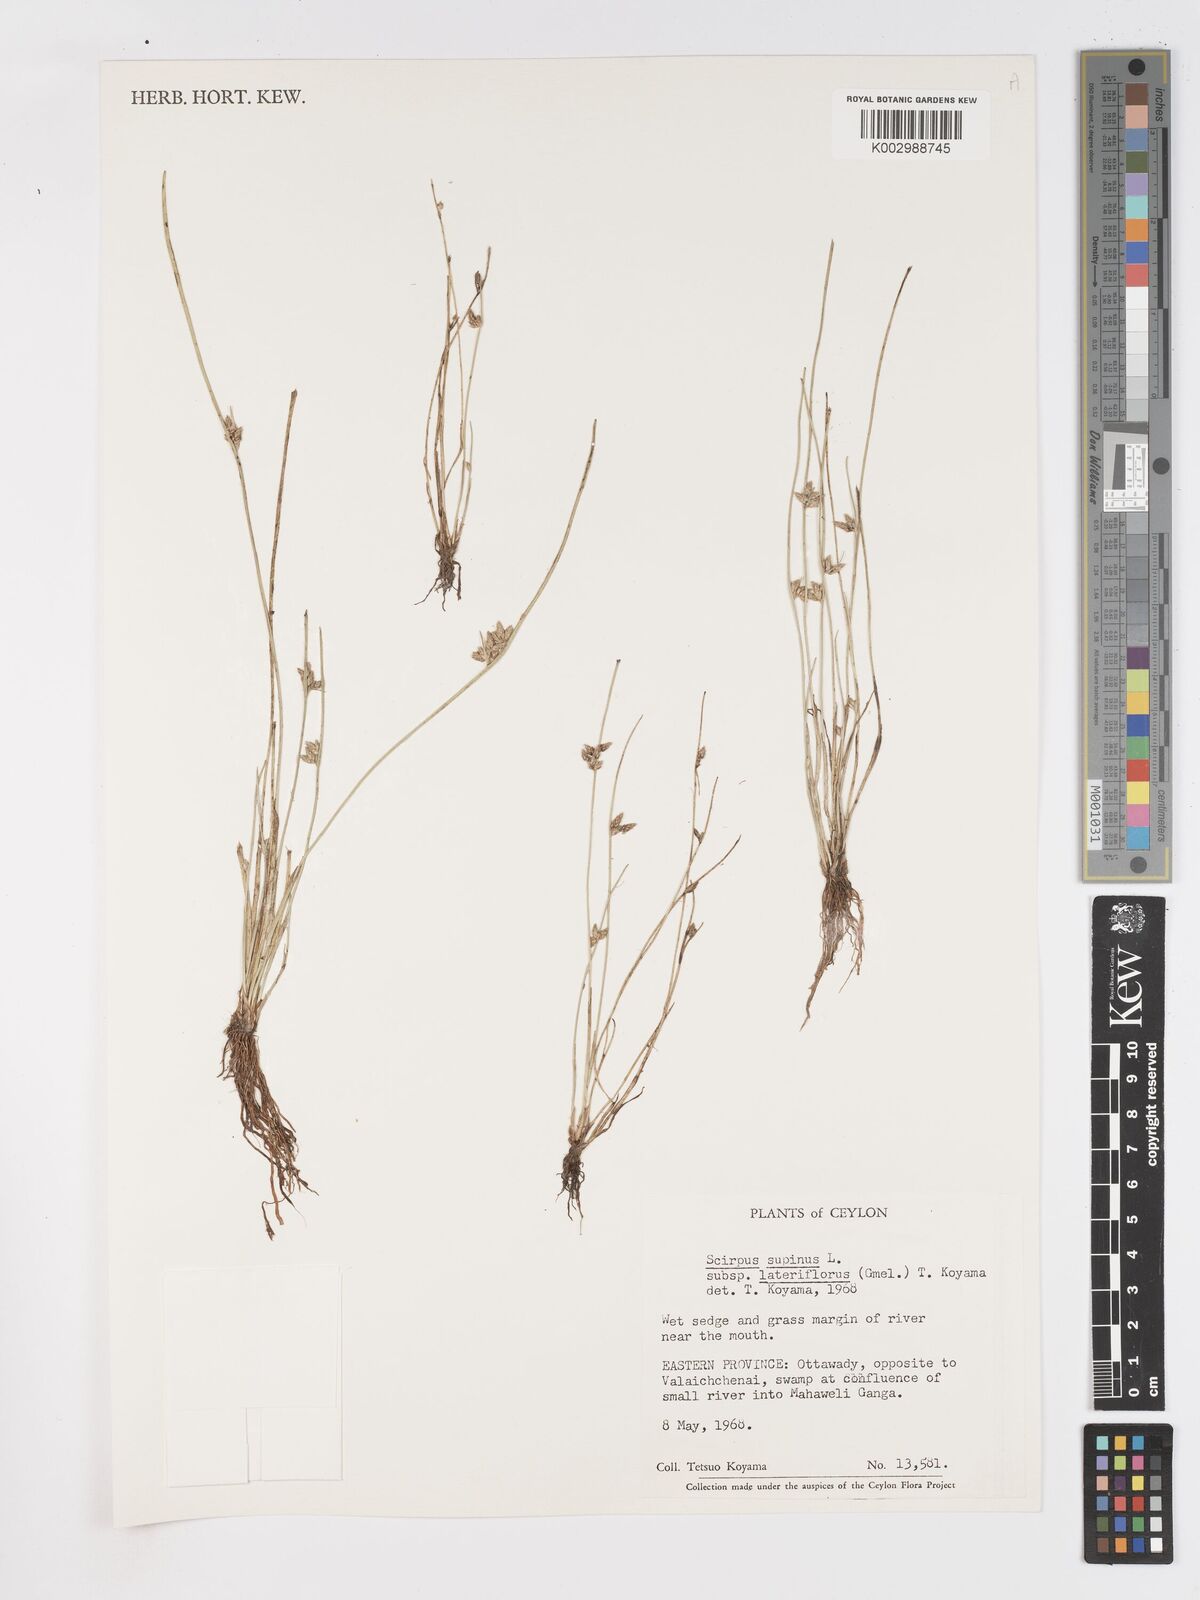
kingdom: Plantae
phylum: Tracheophyta
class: Liliopsida
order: Poales
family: Cyperaceae
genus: Schoenoplectiella
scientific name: Schoenoplectiella lateriflora
